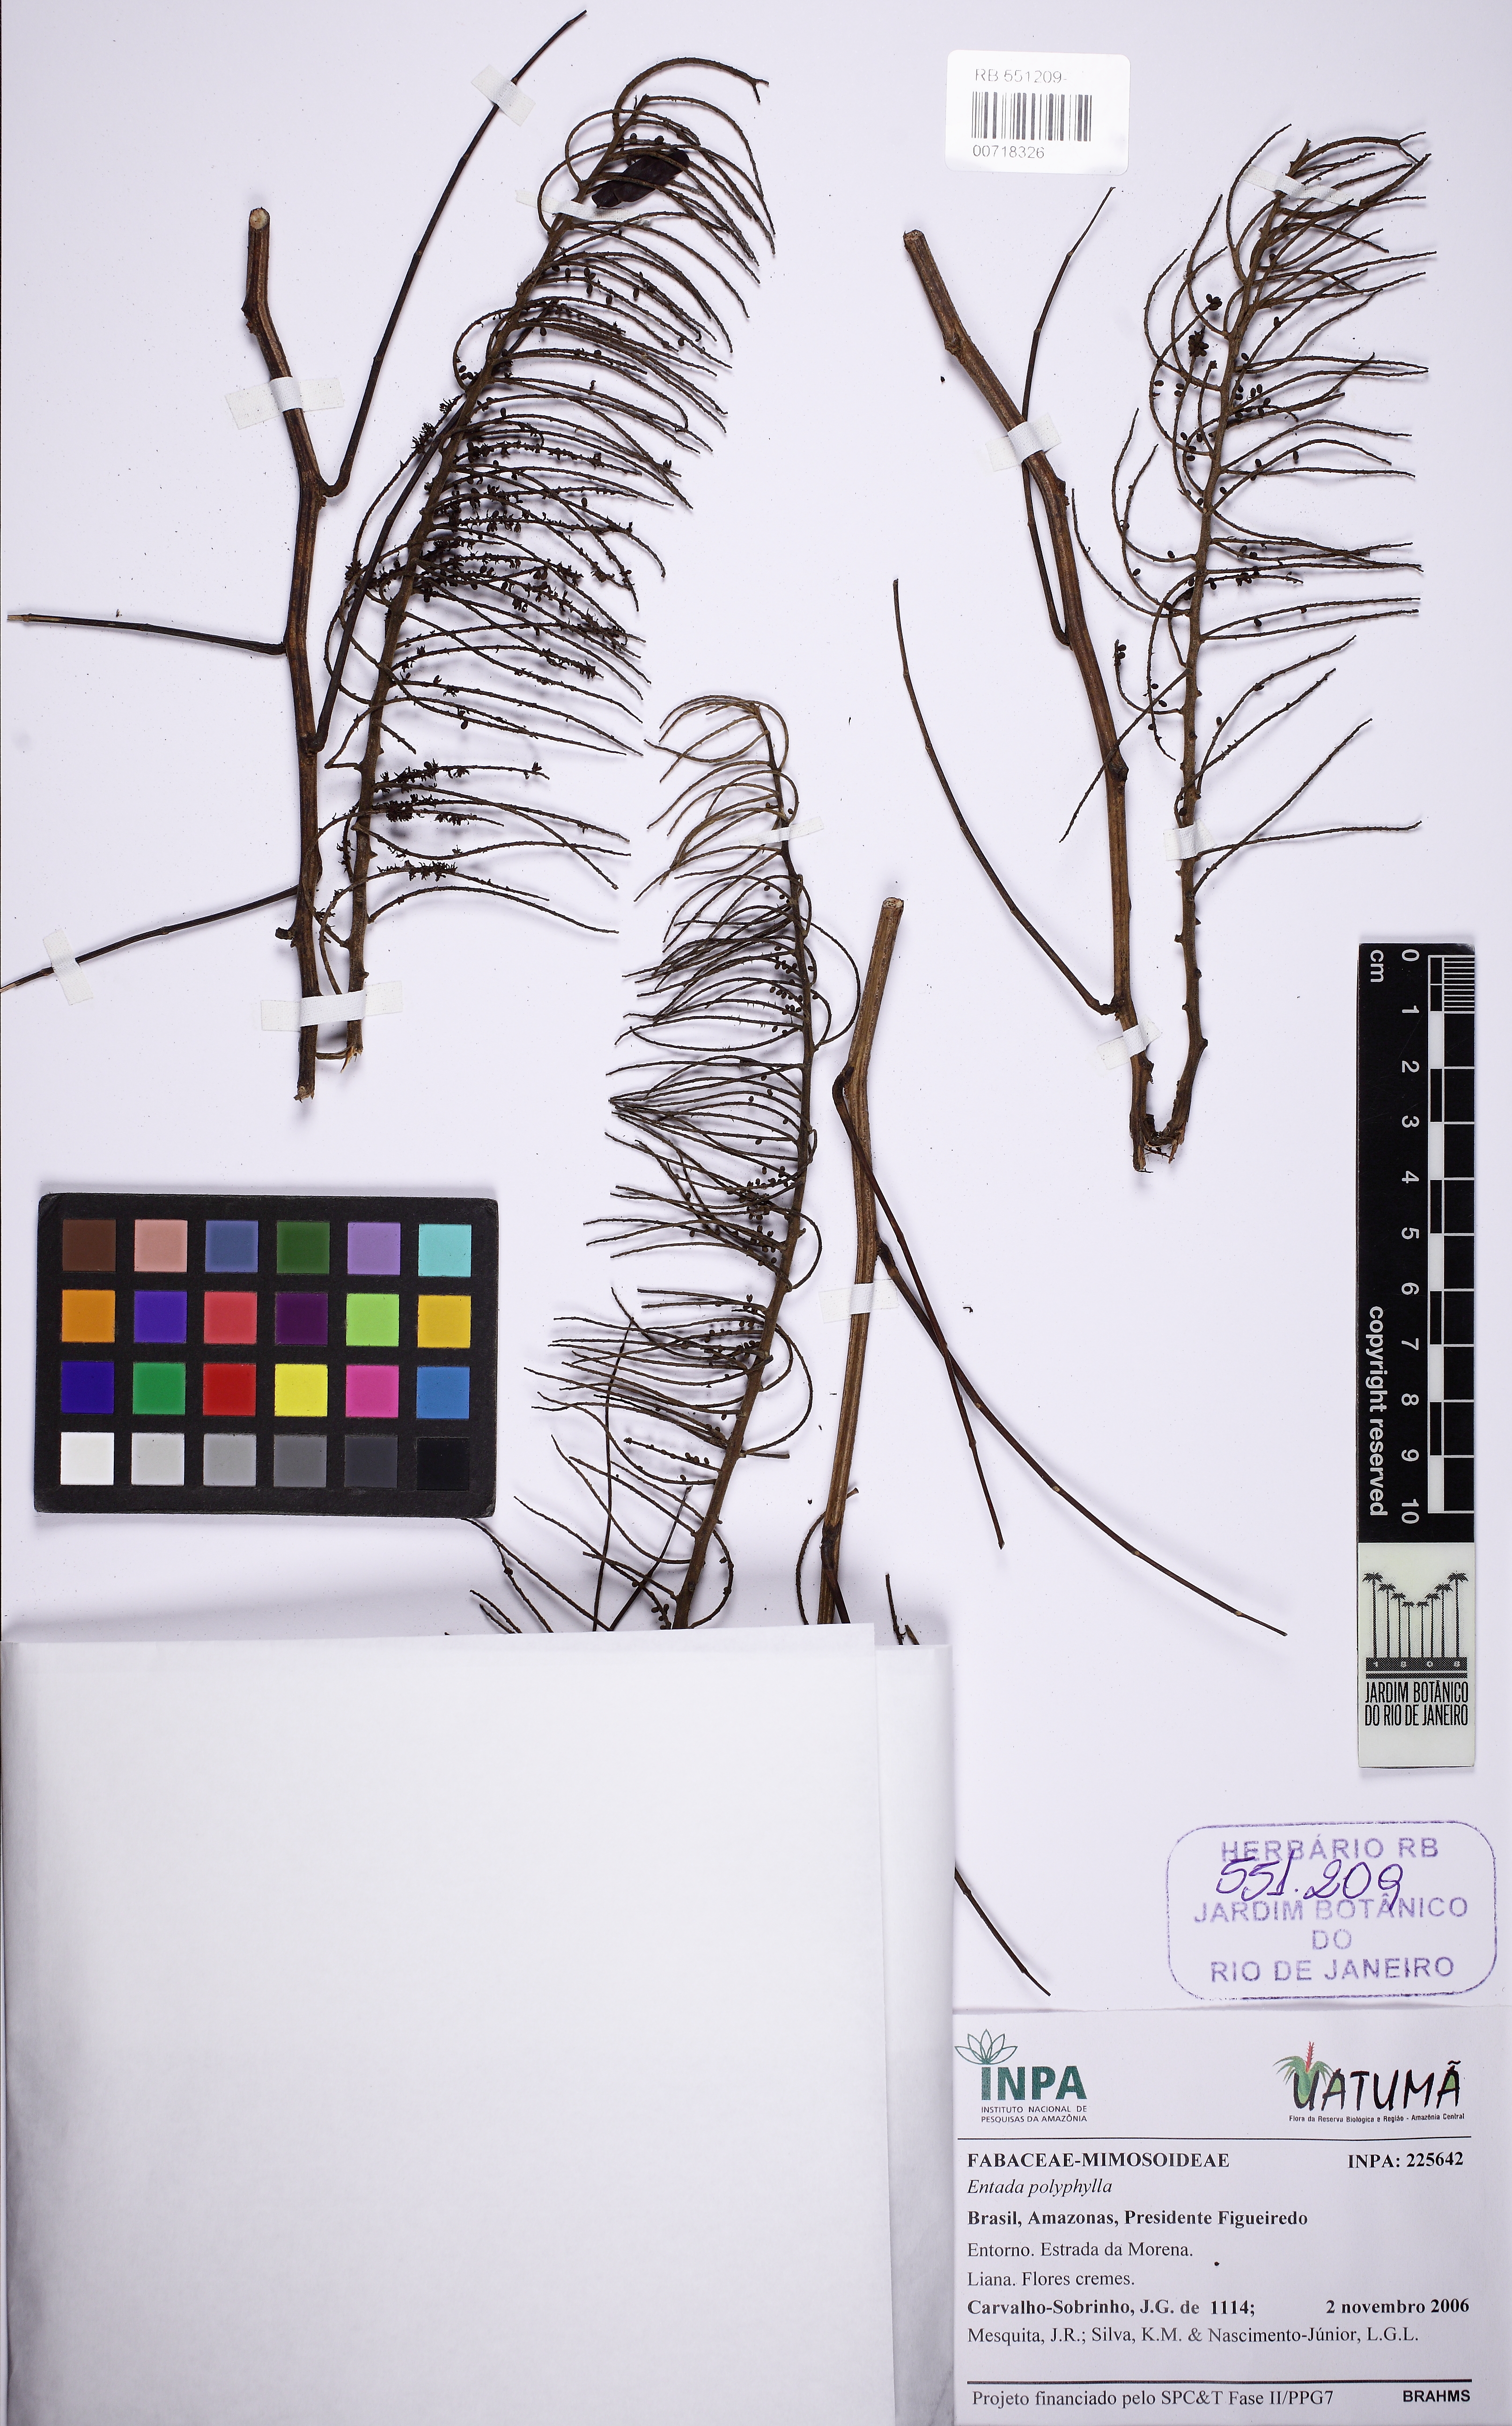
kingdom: Plantae
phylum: Tracheophyta
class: Magnoliopsida
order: Fabales
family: Fabaceae
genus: Entada
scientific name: Entada polyphylla
